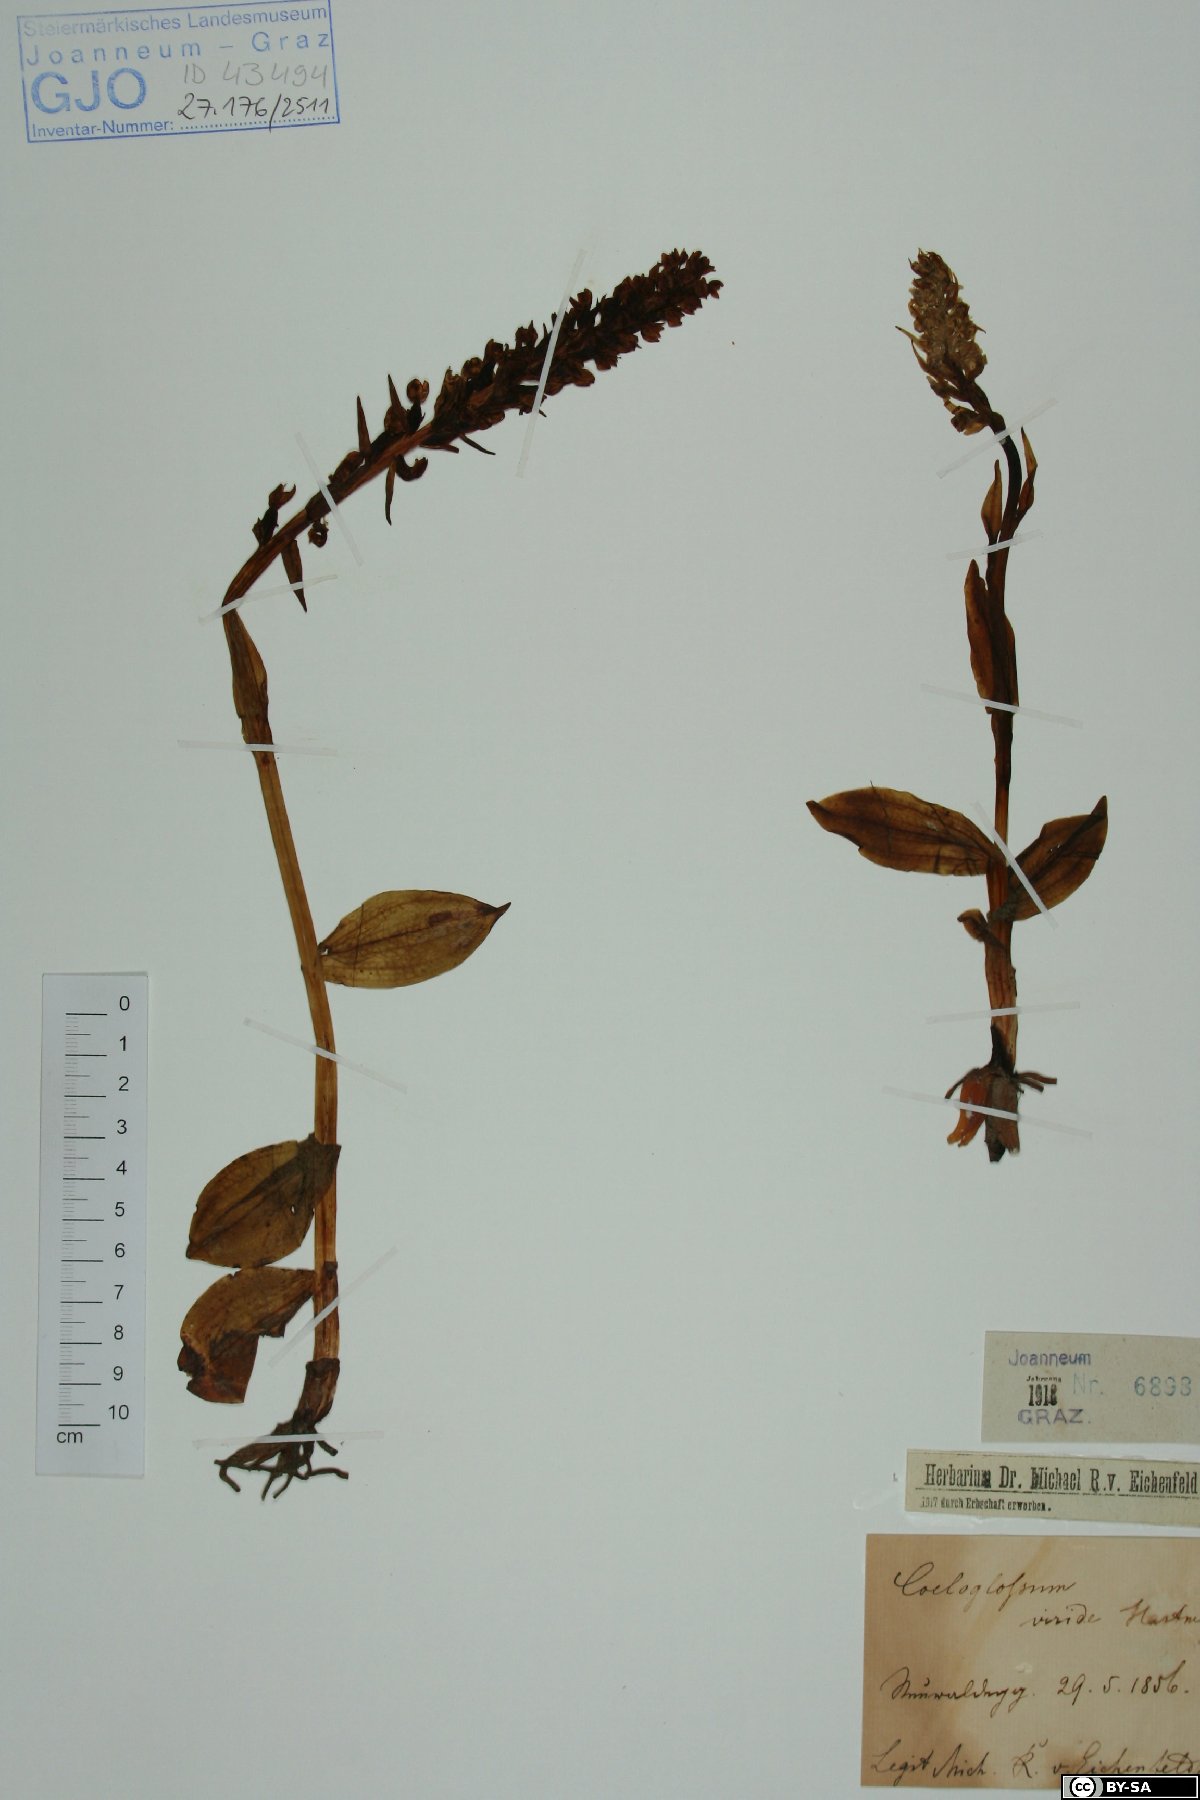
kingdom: Plantae
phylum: Tracheophyta
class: Liliopsida
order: Asparagales
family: Orchidaceae
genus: Dactylorhiza
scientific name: Dactylorhiza viridis
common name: Longbract frog orchid
